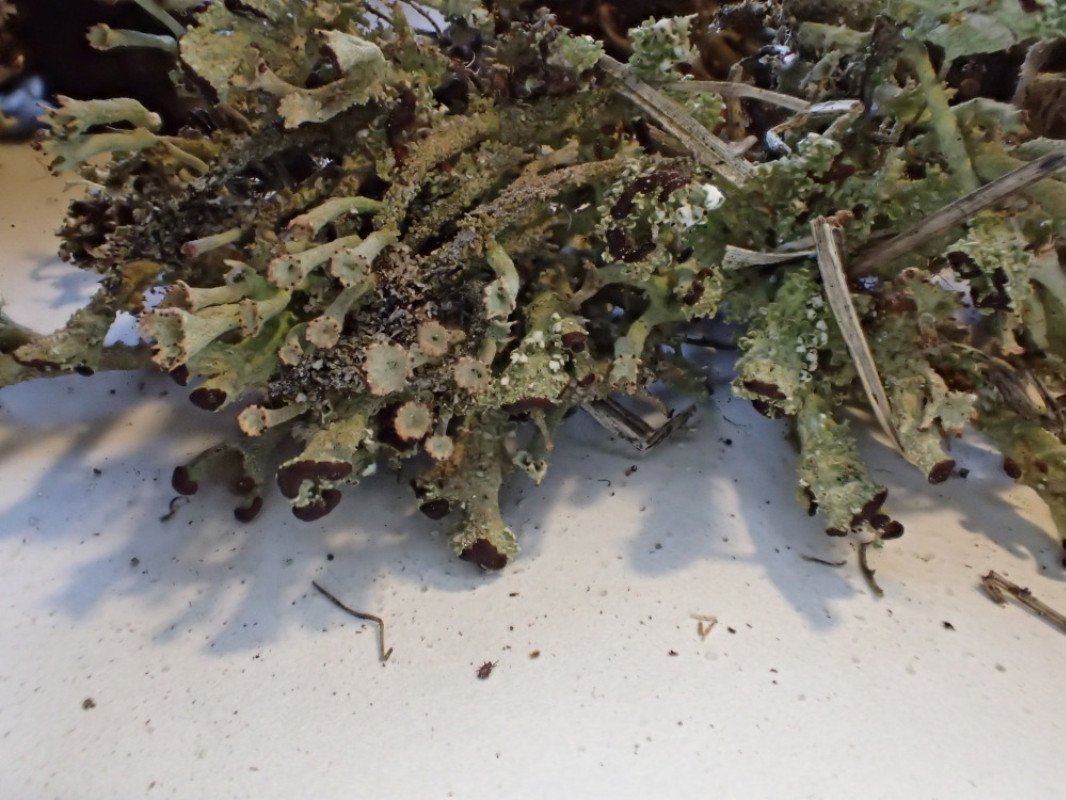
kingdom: Fungi
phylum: Ascomycota
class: Lecanoromycetes
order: Lecanorales
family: Cladoniaceae
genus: Cladonia
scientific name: Cladonia ramulosa
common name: kliddet bægerlav
